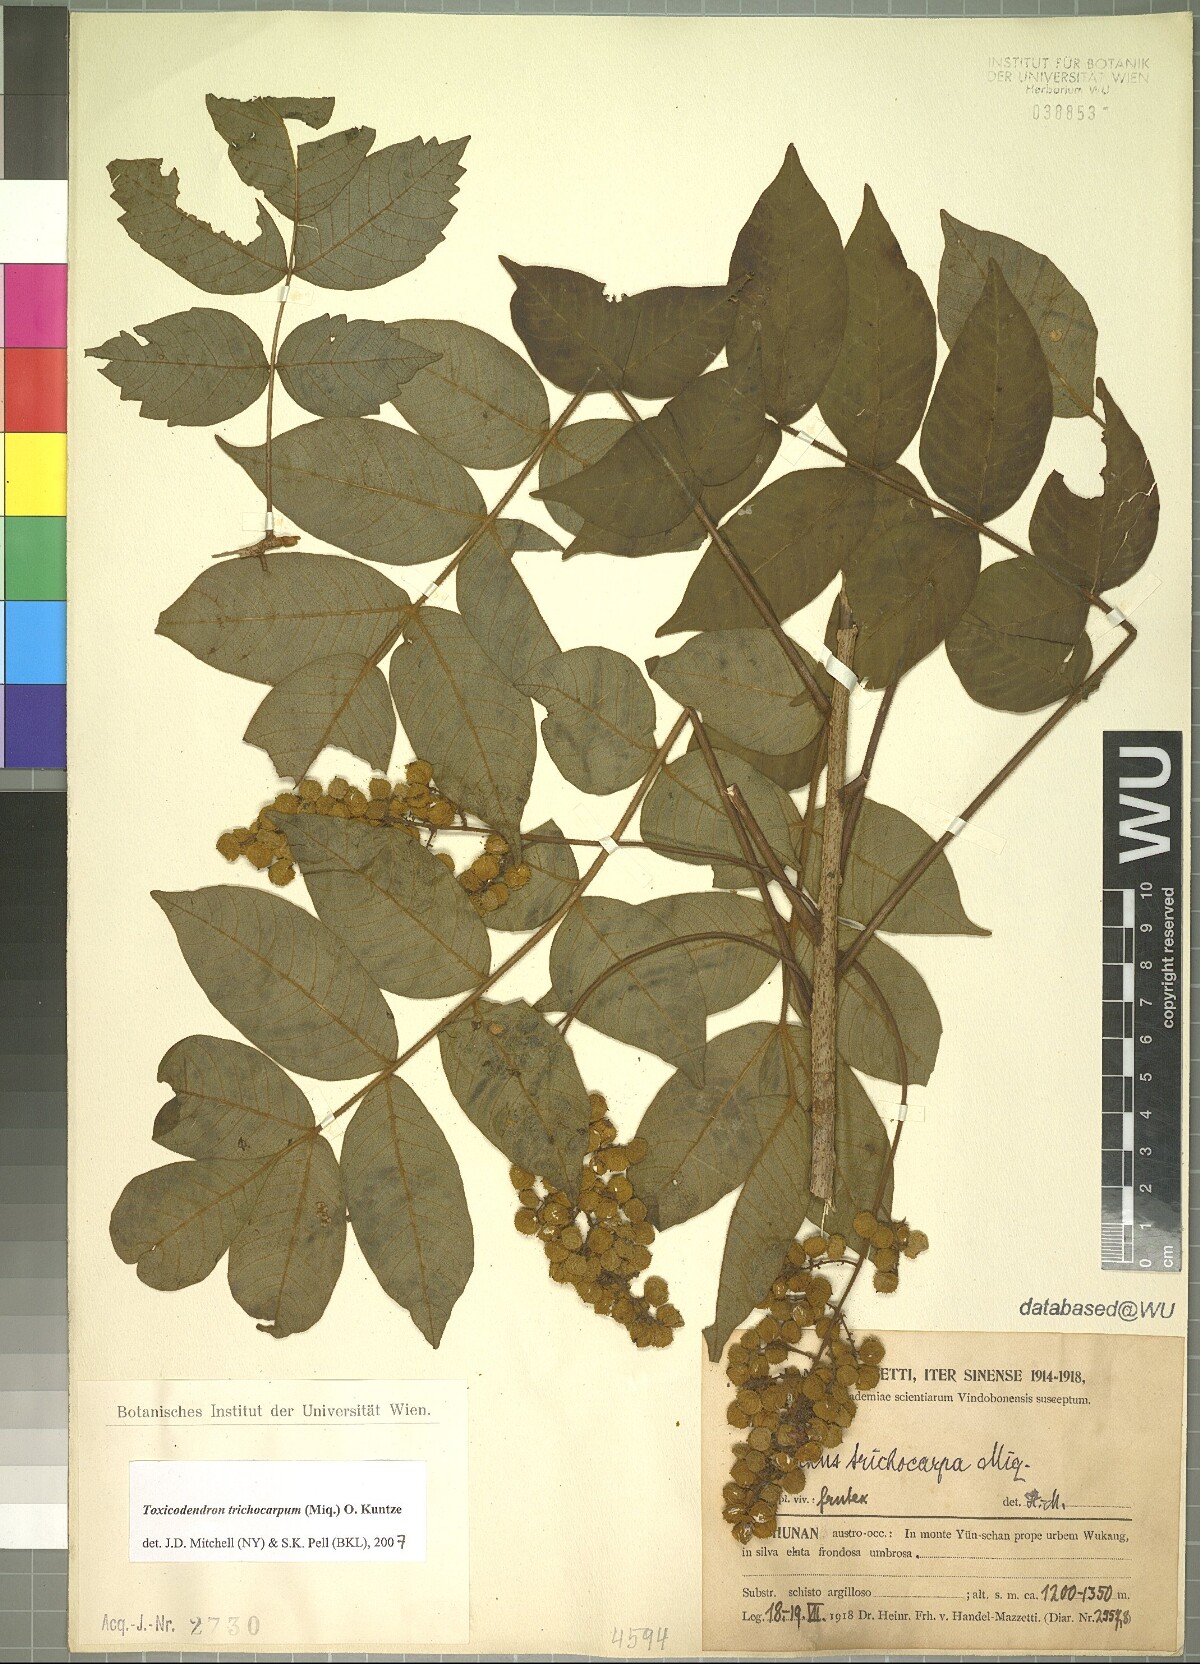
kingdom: Plantae
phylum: Tracheophyta
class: Magnoliopsida
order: Sapindales
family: Anacardiaceae
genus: Toxicodendron
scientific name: Toxicodendron trichocarpum
